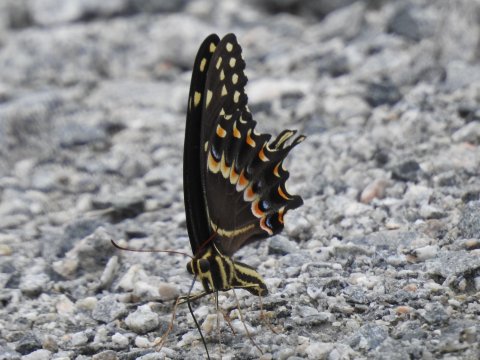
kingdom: Animalia
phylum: Arthropoda
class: Insecta
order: Lepidoptera
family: Papilionidae
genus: Pterourus
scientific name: Pterourus palamedes
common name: Palamedes Swallowtail
